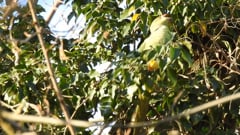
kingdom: Animalia
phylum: Chordata
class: Aves
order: Psittaciformes
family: Psittacidae
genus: Psittacula
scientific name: Psittacula krameri
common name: Rose-ringed parakeet
